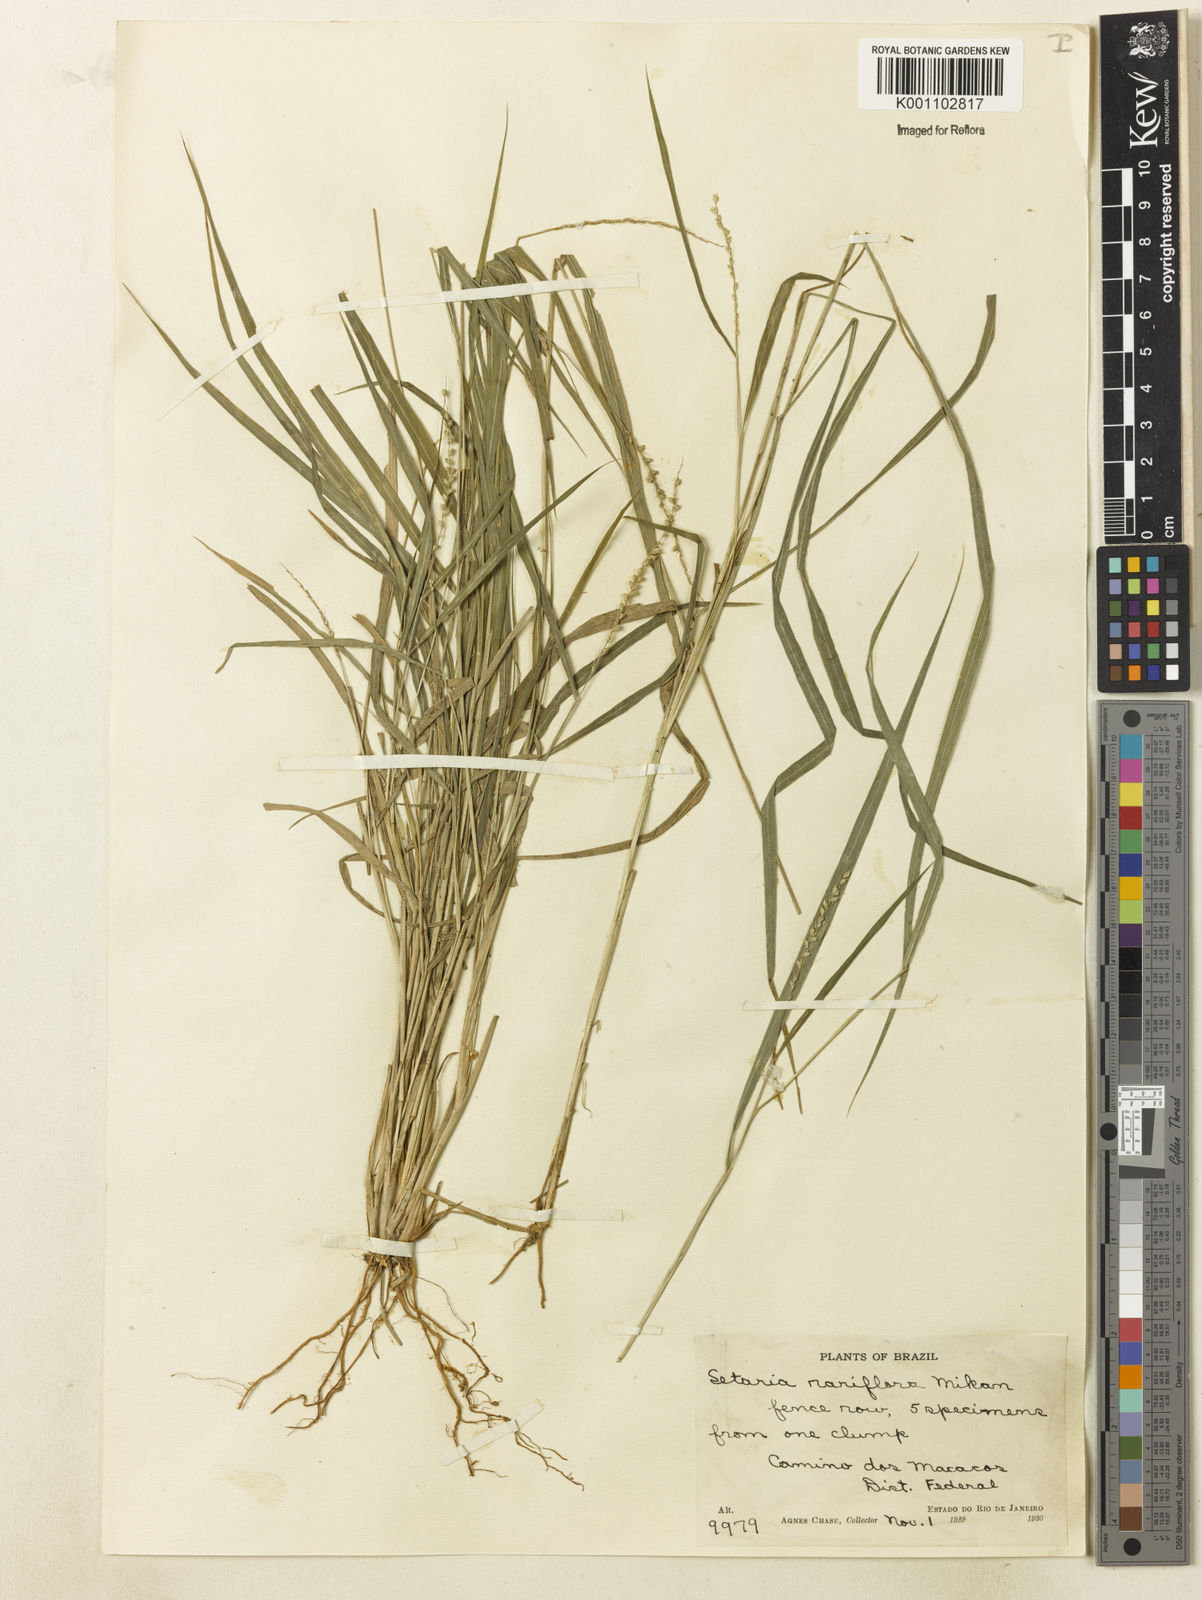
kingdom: Plantae
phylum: Tracheophyta
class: Liliopsida
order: Poales
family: Poaceae
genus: Setaria
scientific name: Setaria setosa
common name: West indies bristle grass
